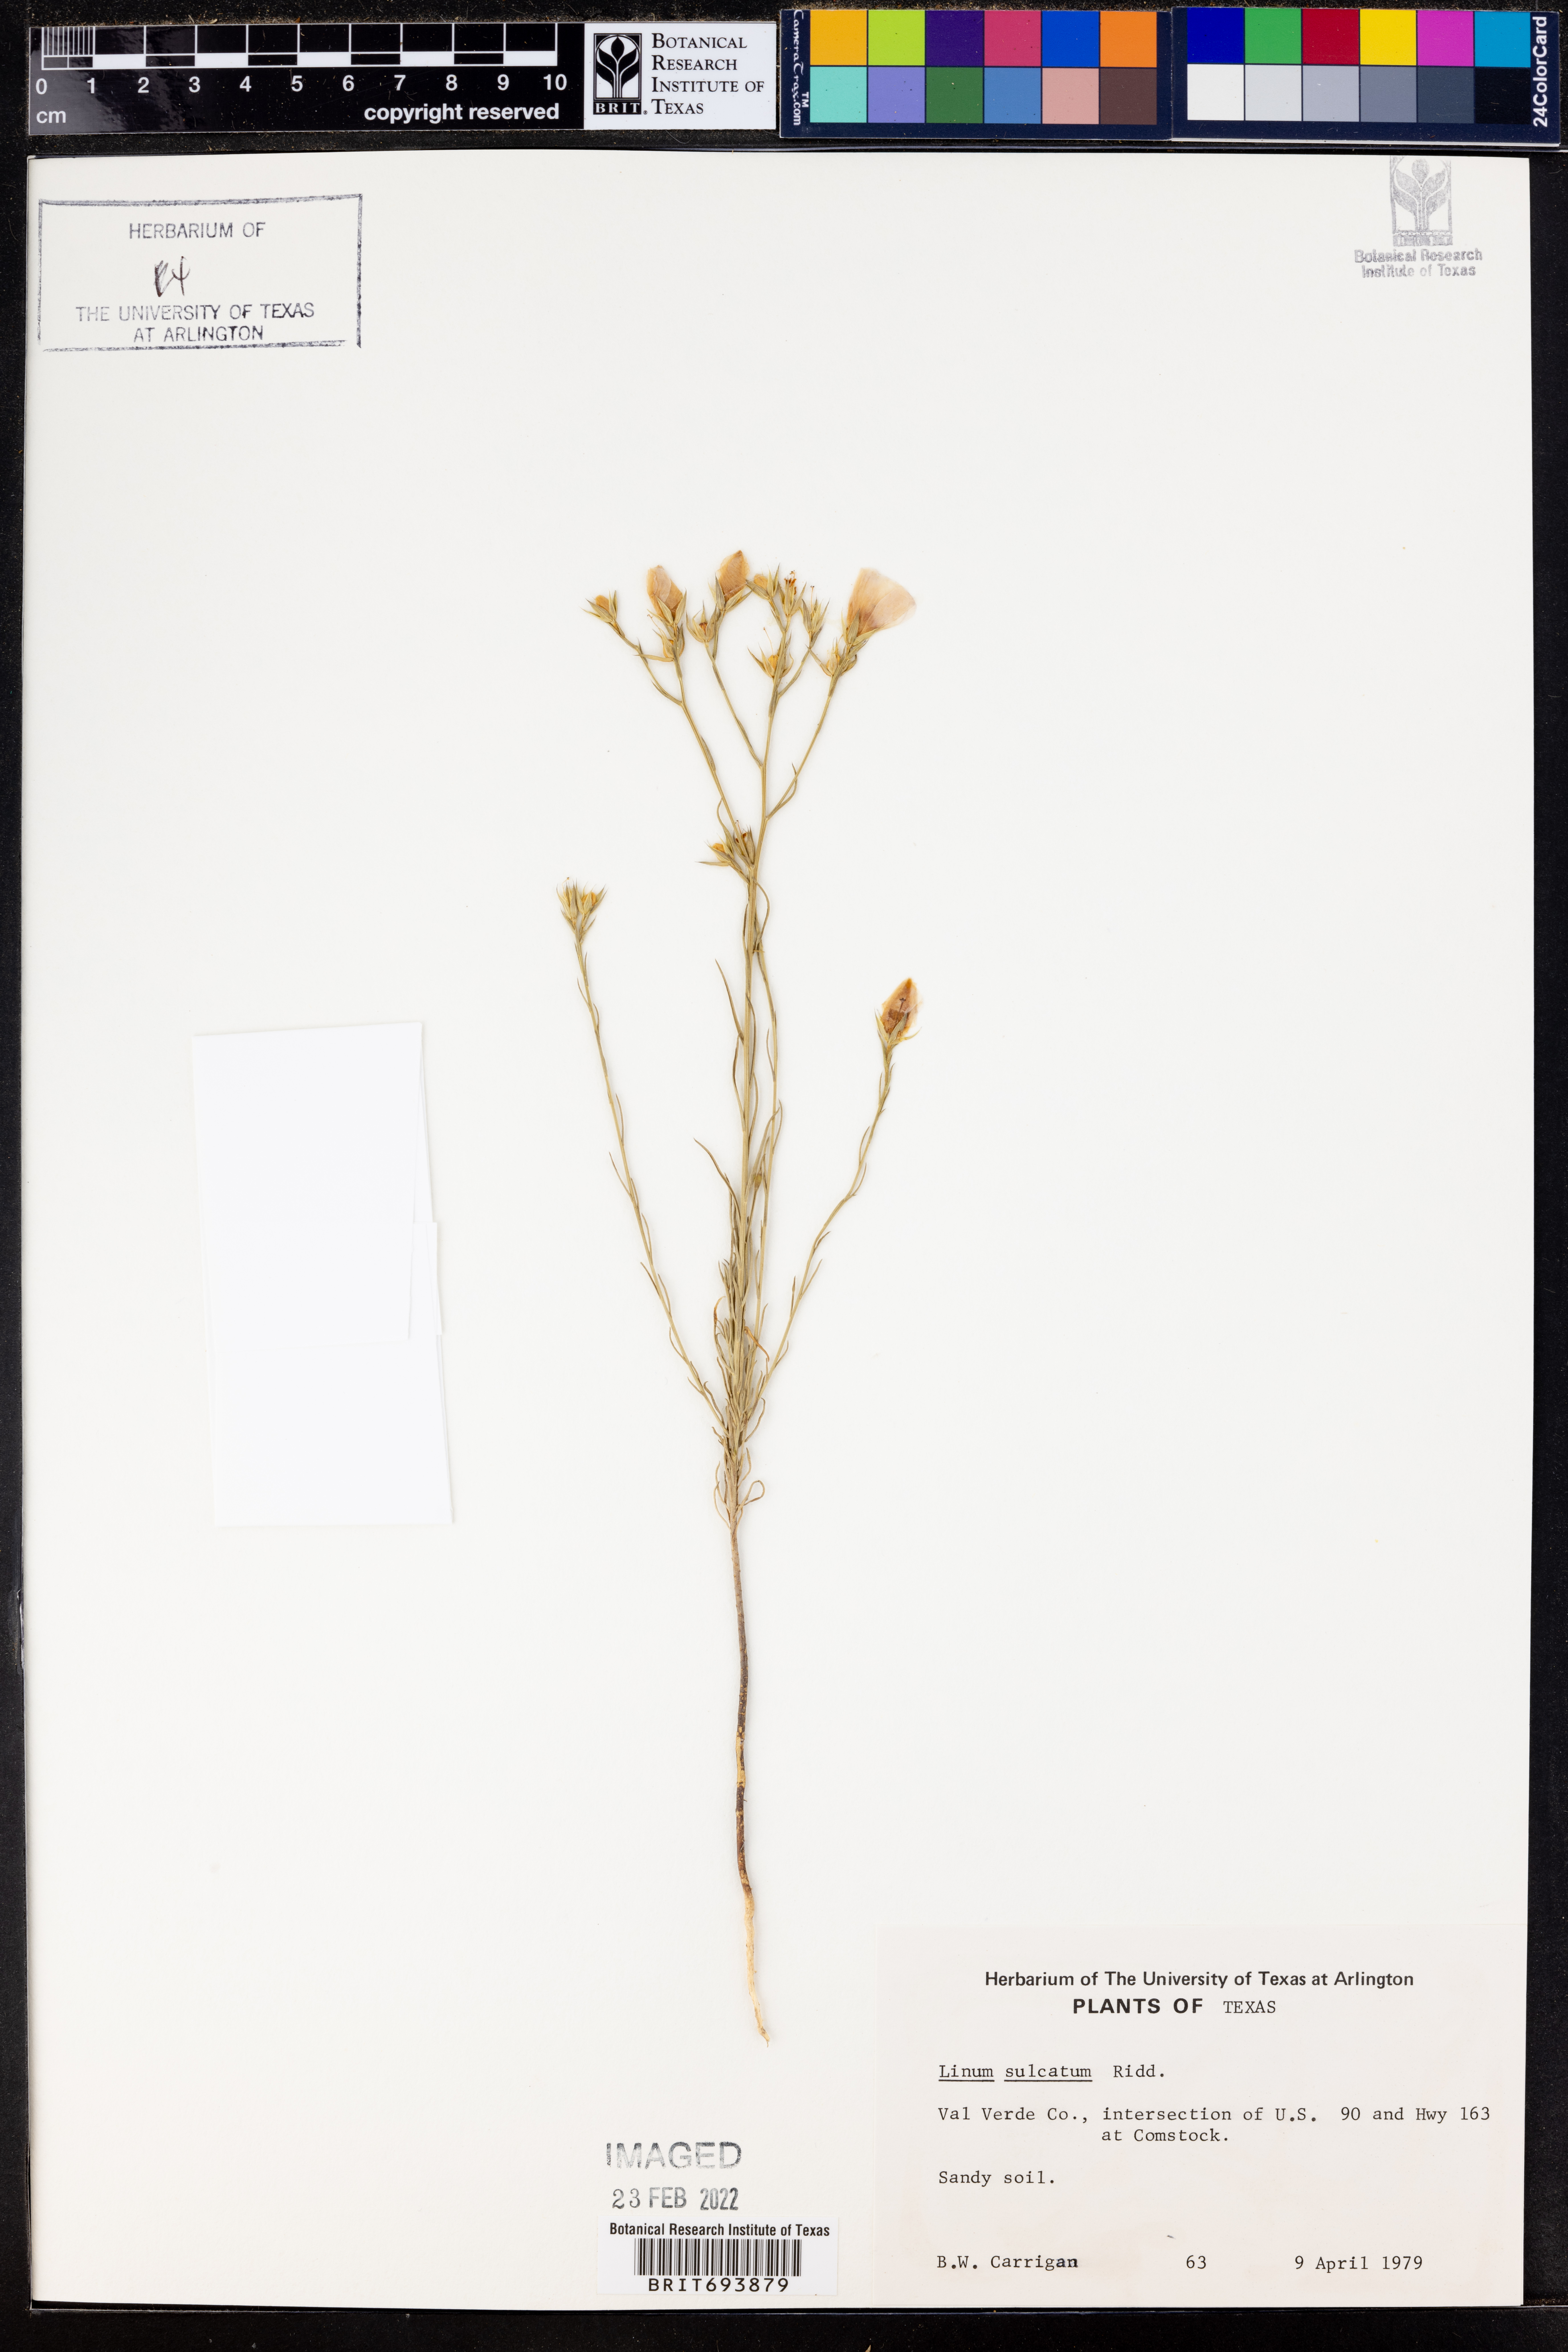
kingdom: Plantae
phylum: Tracheophyta
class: Magnoliopsida
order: Malpighiales
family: Linaceae
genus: Linum
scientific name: Linum sulcatum
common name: Grooved flax
